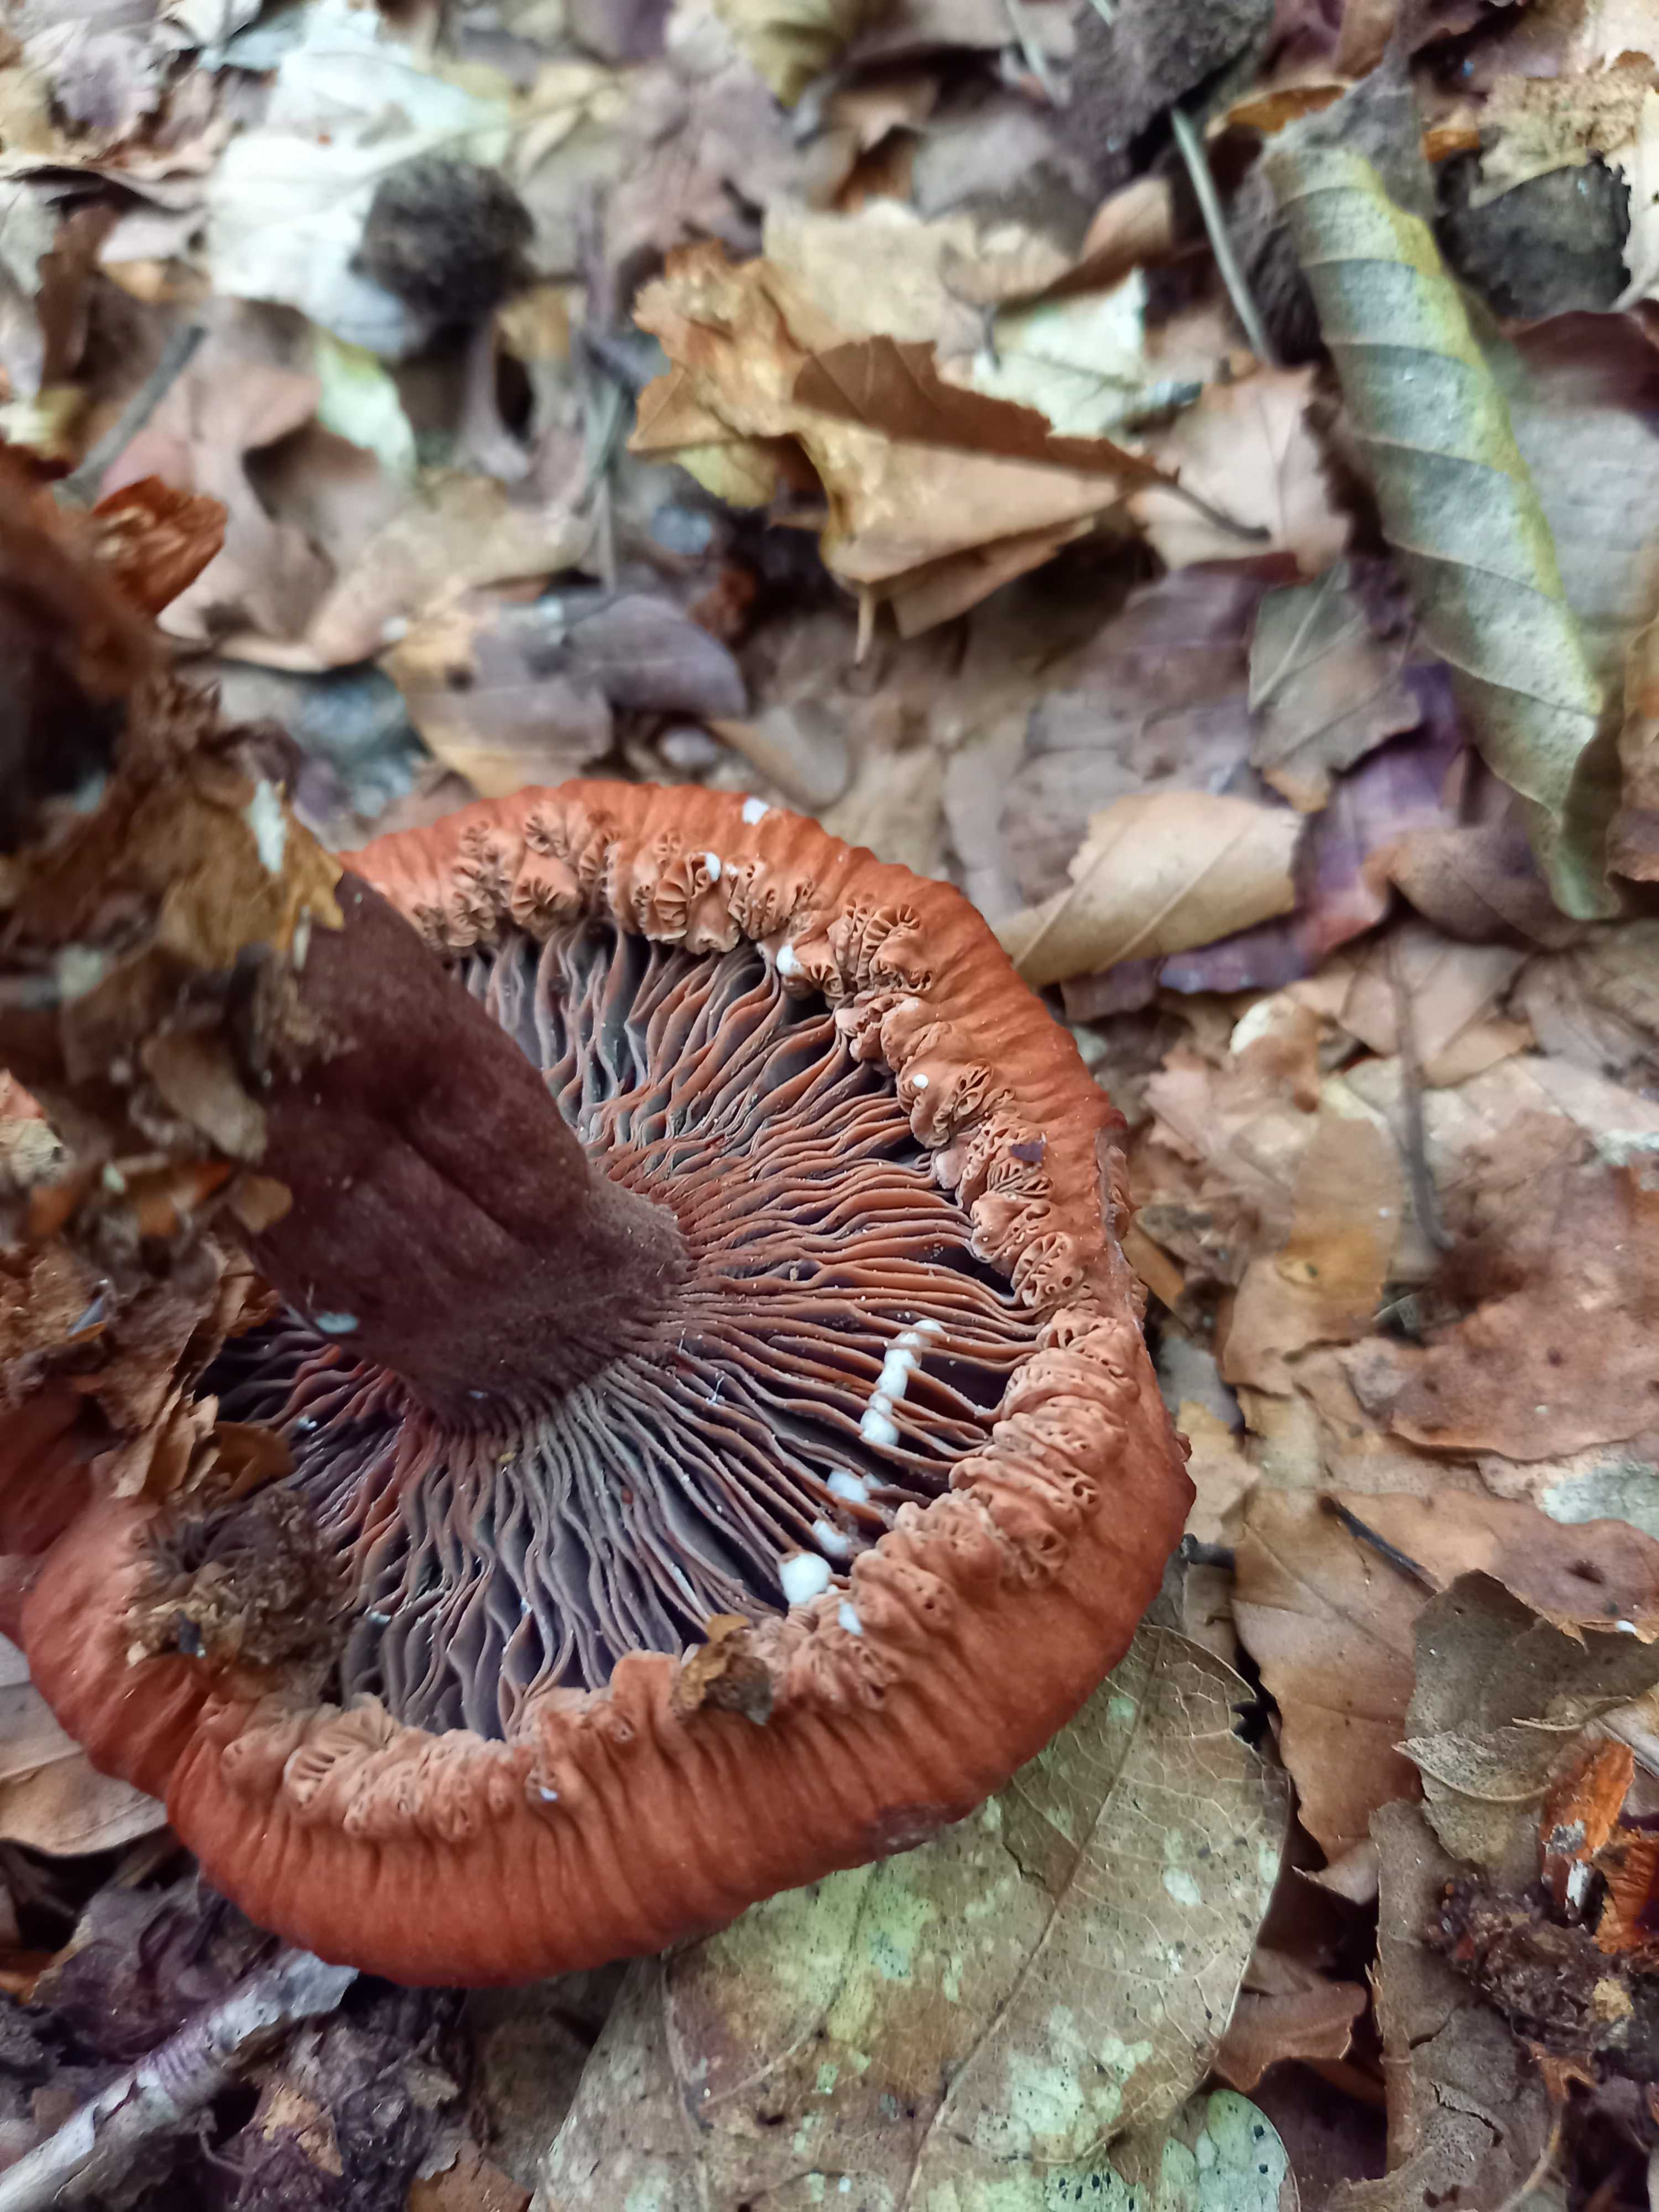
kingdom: Fungi
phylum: Basidiomycota
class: Agaricomycetes
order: Russulales
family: Russulaceae
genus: Lactarius
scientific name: Lactarius camphoratus
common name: kamfer-mælkehat
